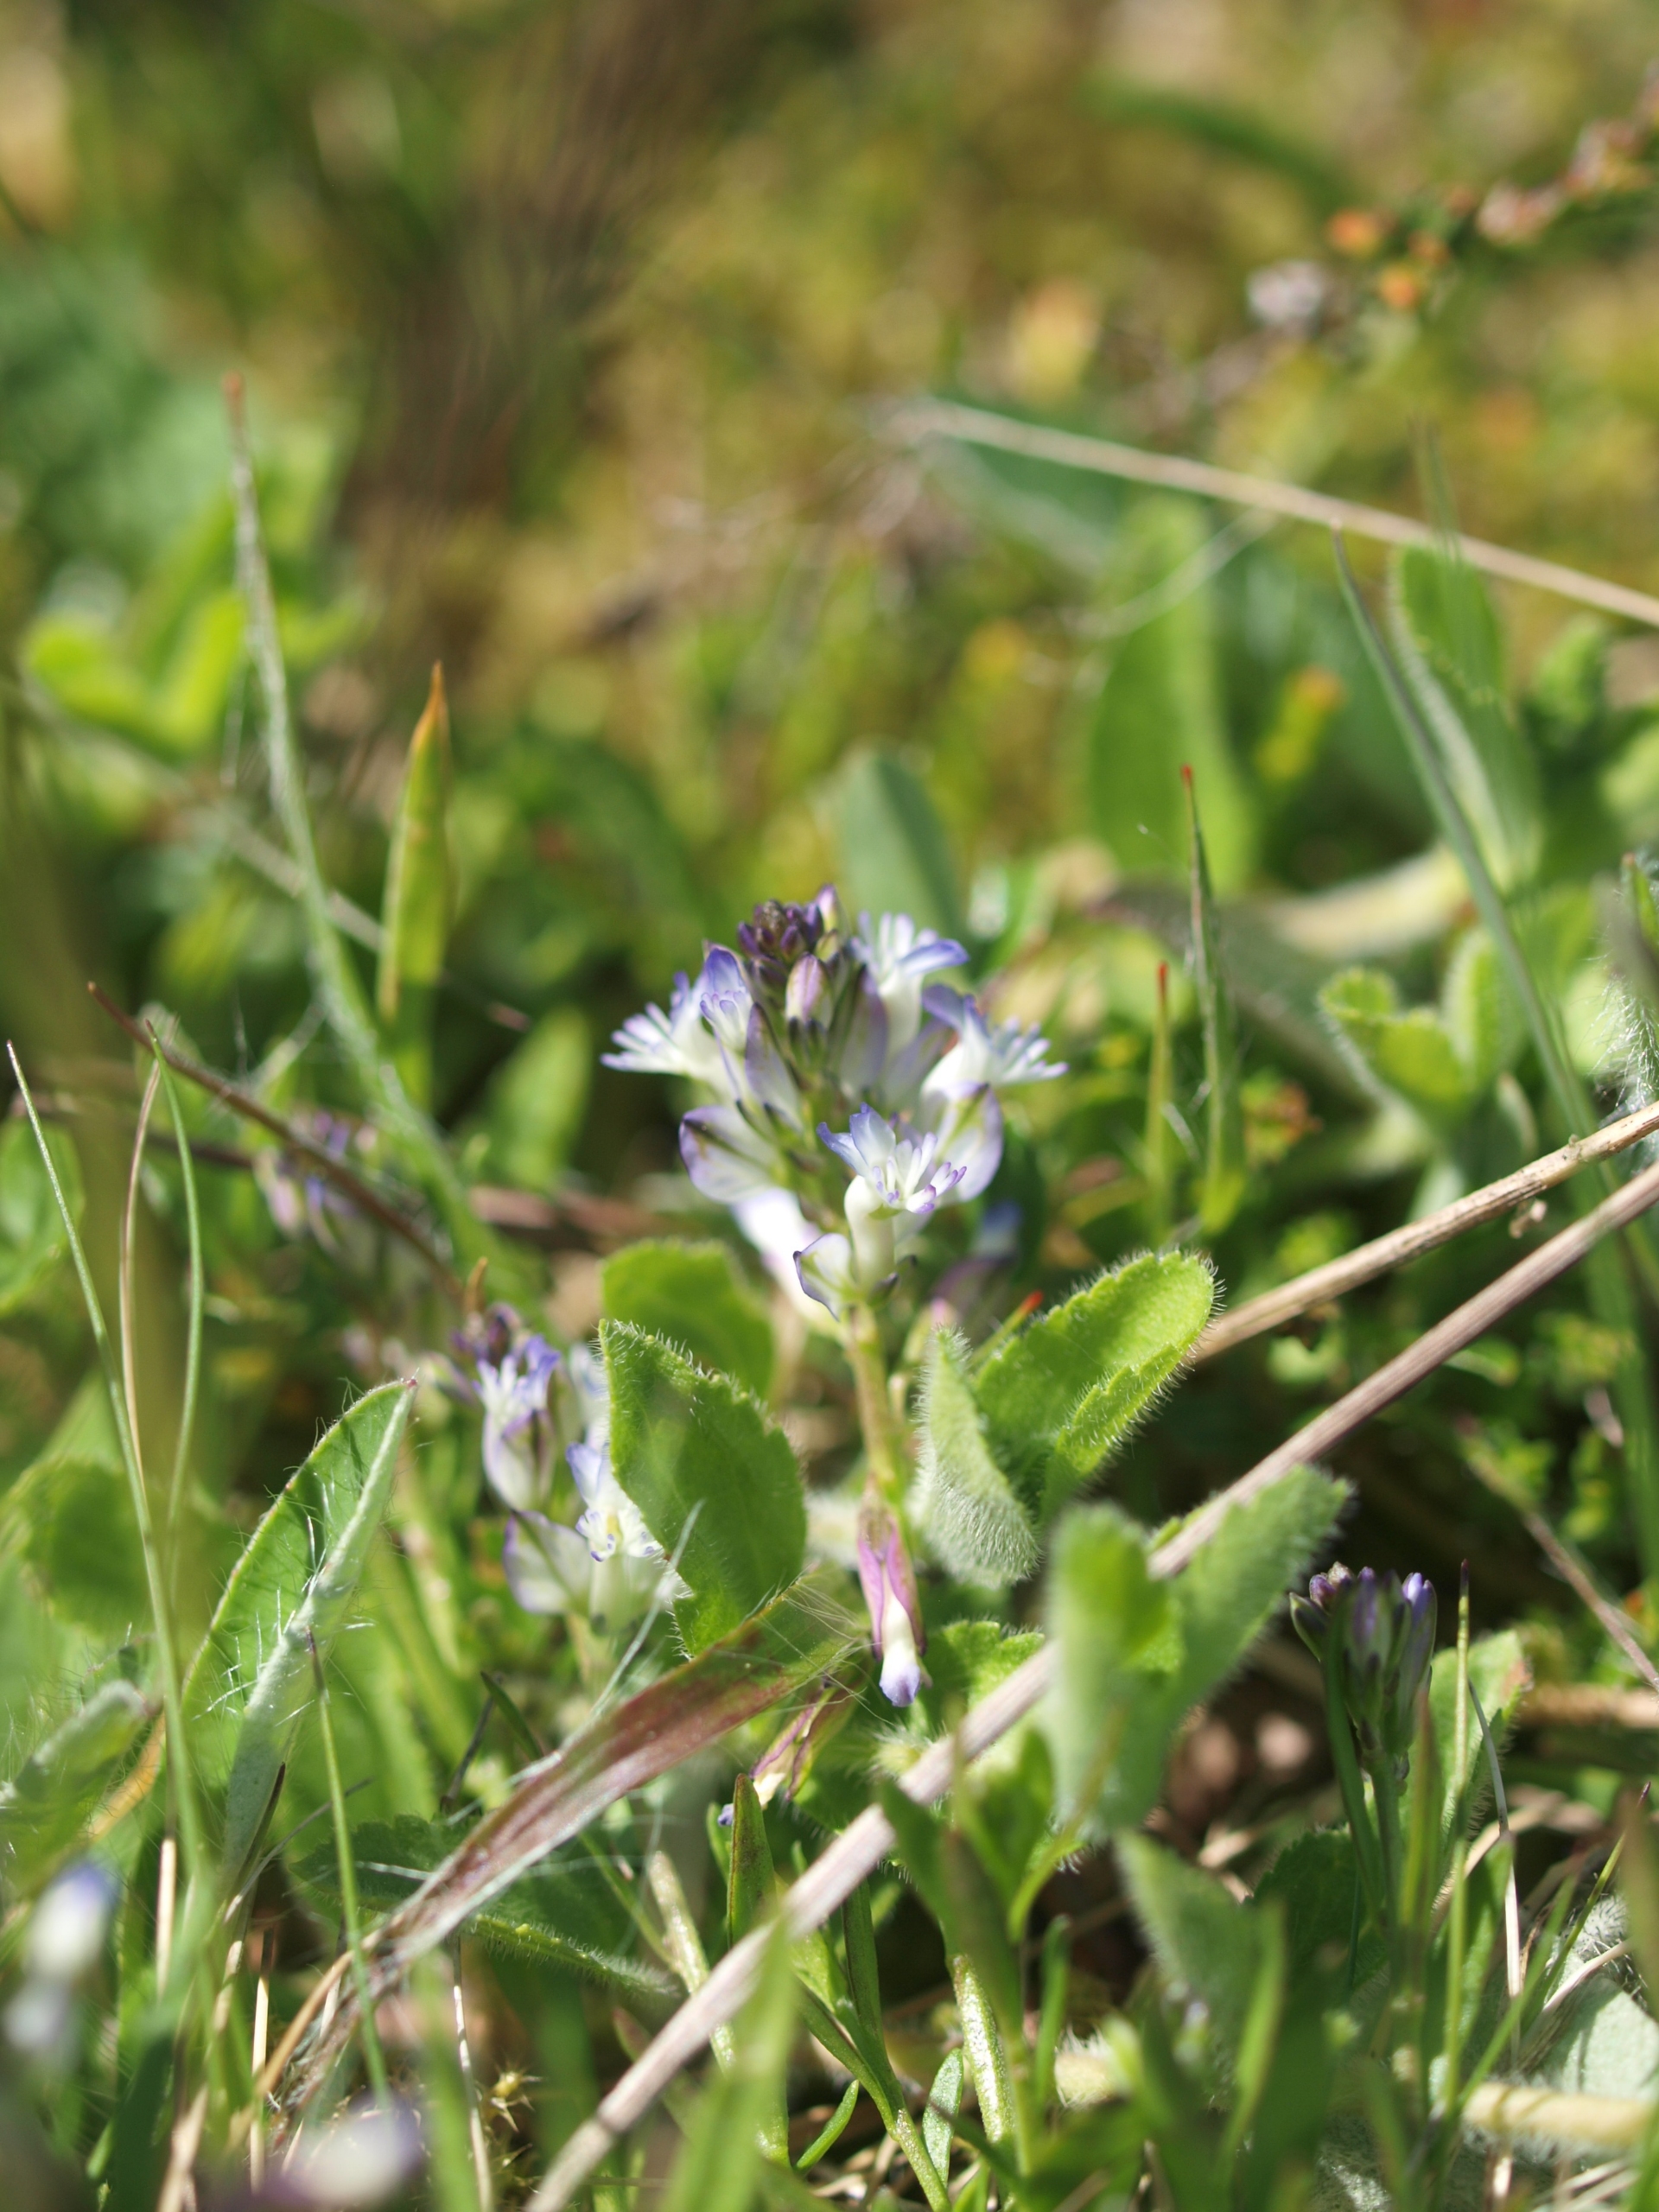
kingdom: Plantae
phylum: Tracheophyta
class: Magnoliopsida
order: Fabales
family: Polygalaceae
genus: Polygala
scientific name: Polygala vulgaris
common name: Almindelig mælkeurt
